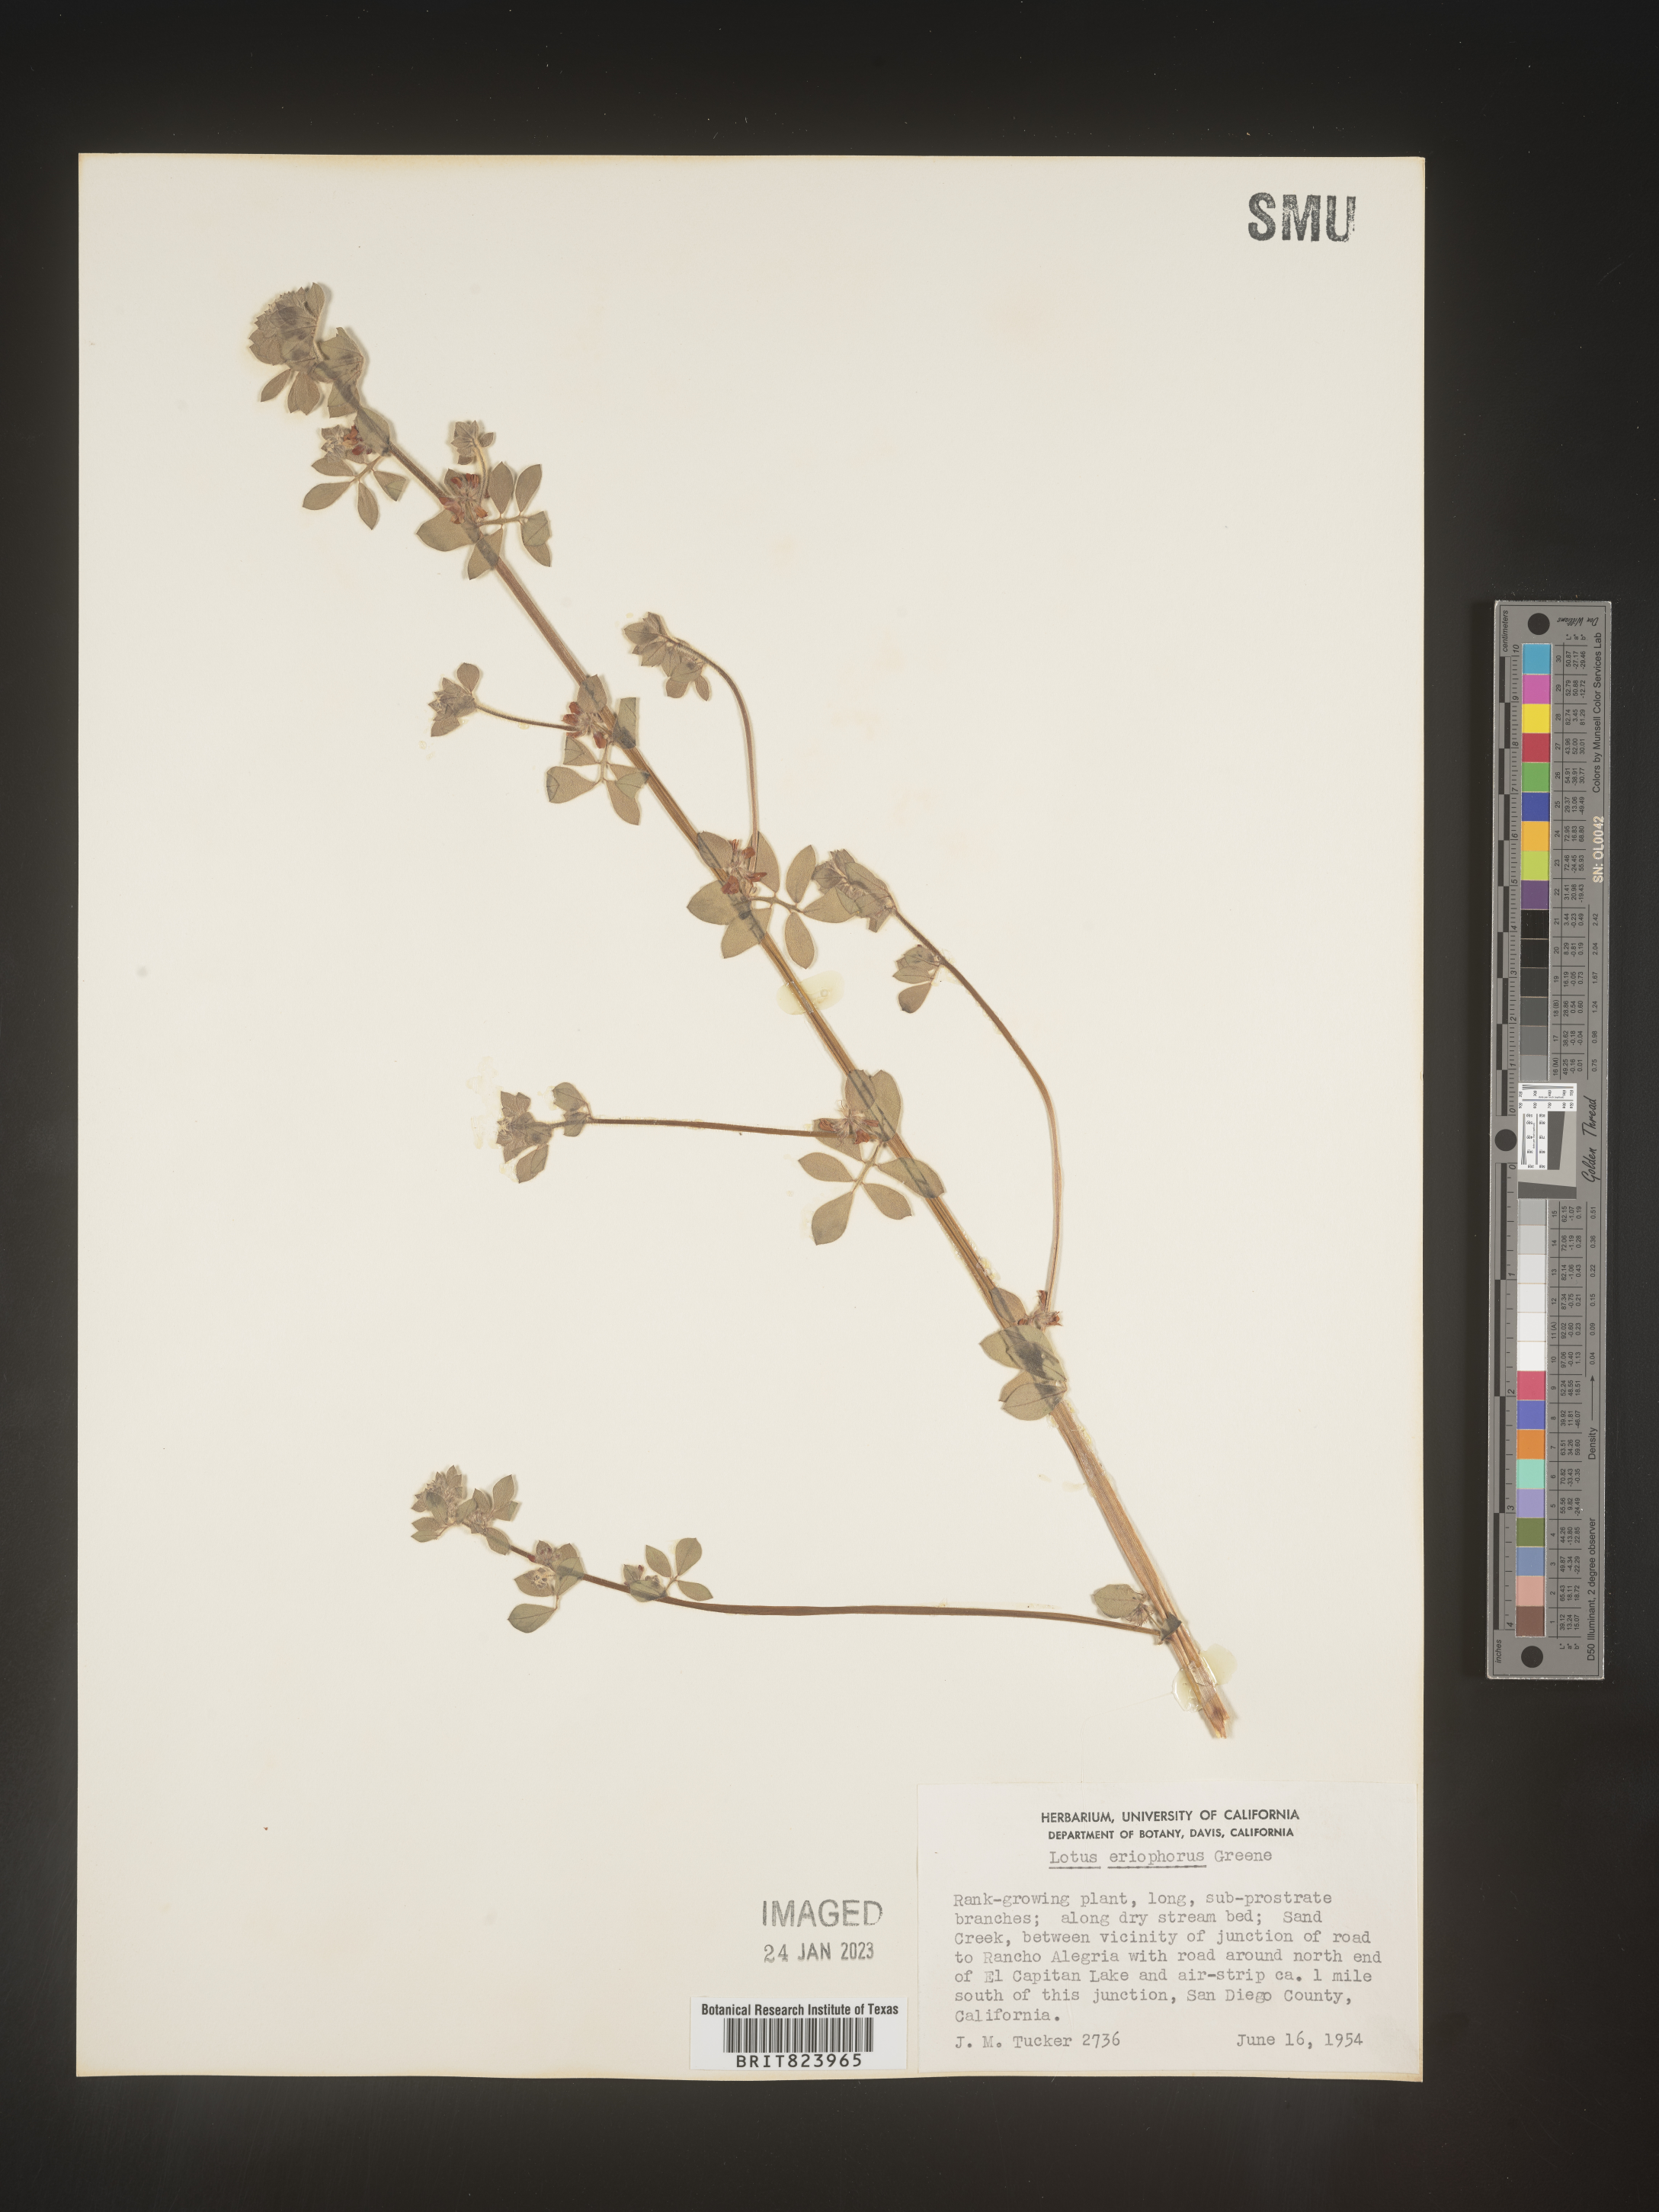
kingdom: Plantae
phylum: Tracheophyta
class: Magnoliopsida
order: Fabales
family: Fabaceae
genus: Lotus
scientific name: Lotus
